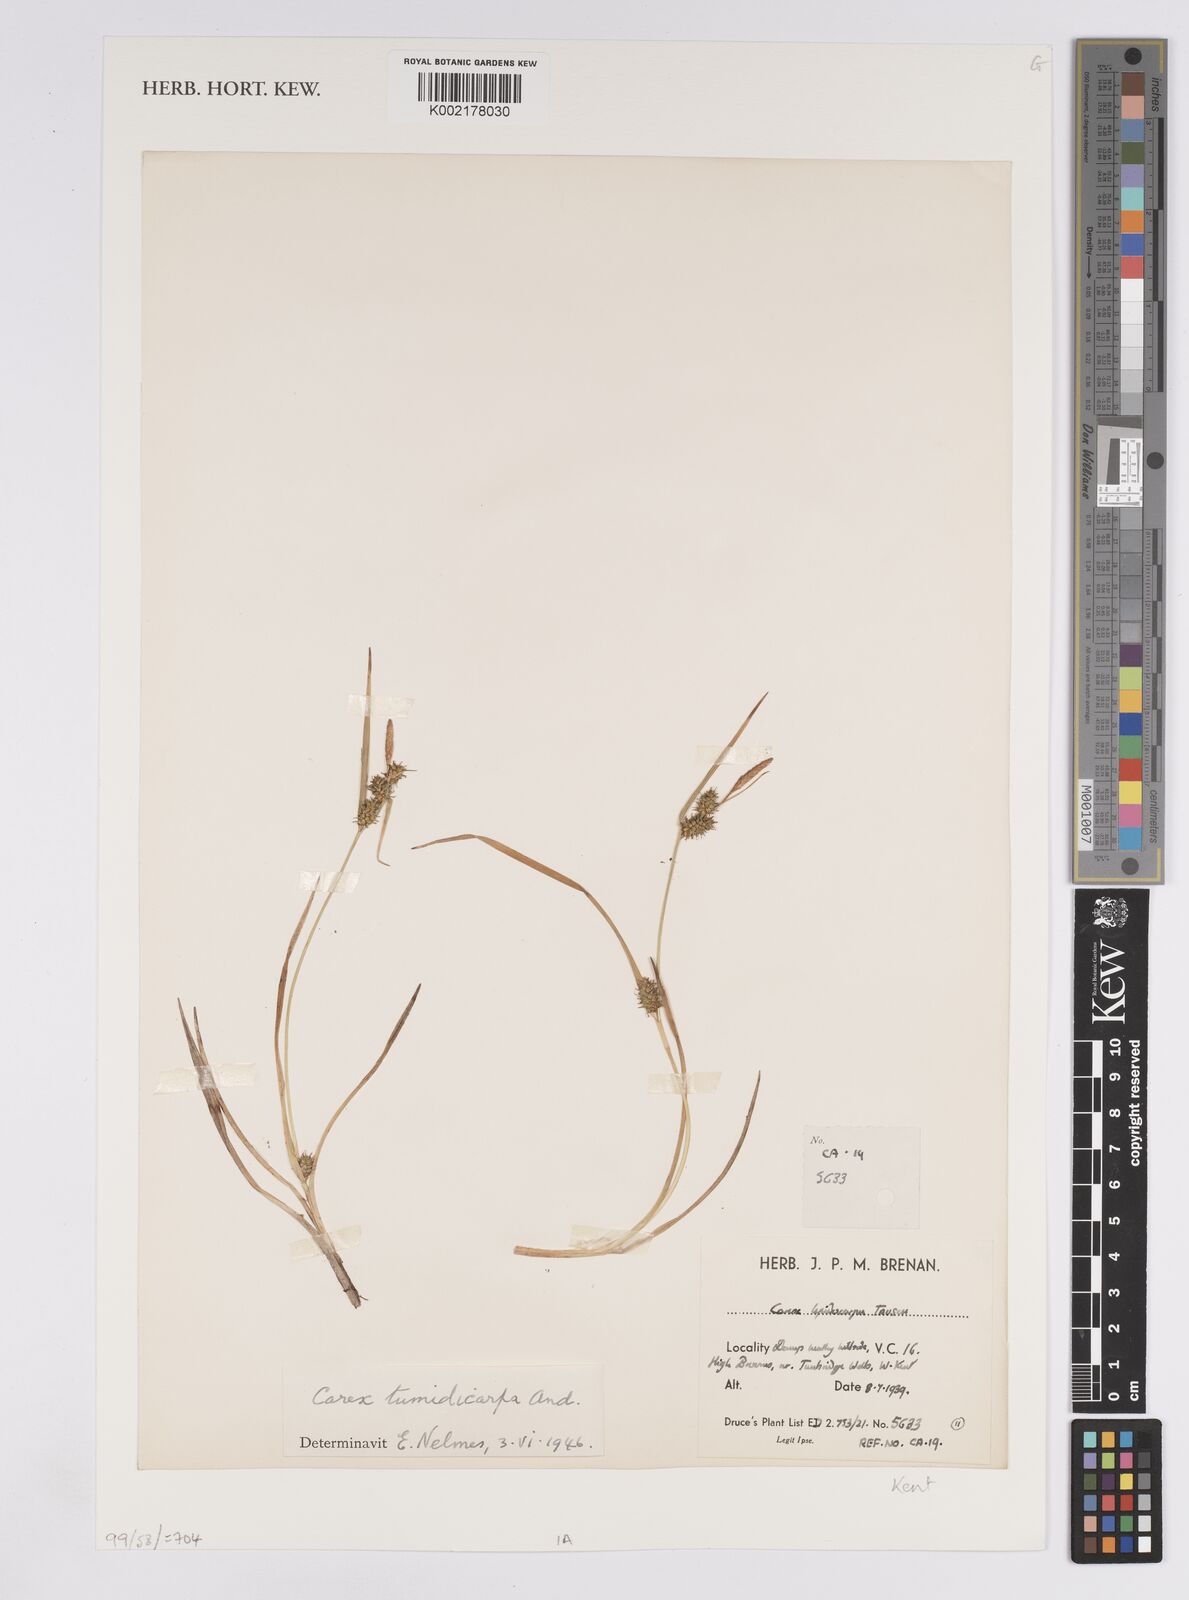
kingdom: Plantae
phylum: Tracheophyta
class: Liliopsida
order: Poales
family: Cyperaceae
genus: Carex
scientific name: Carex demissa
